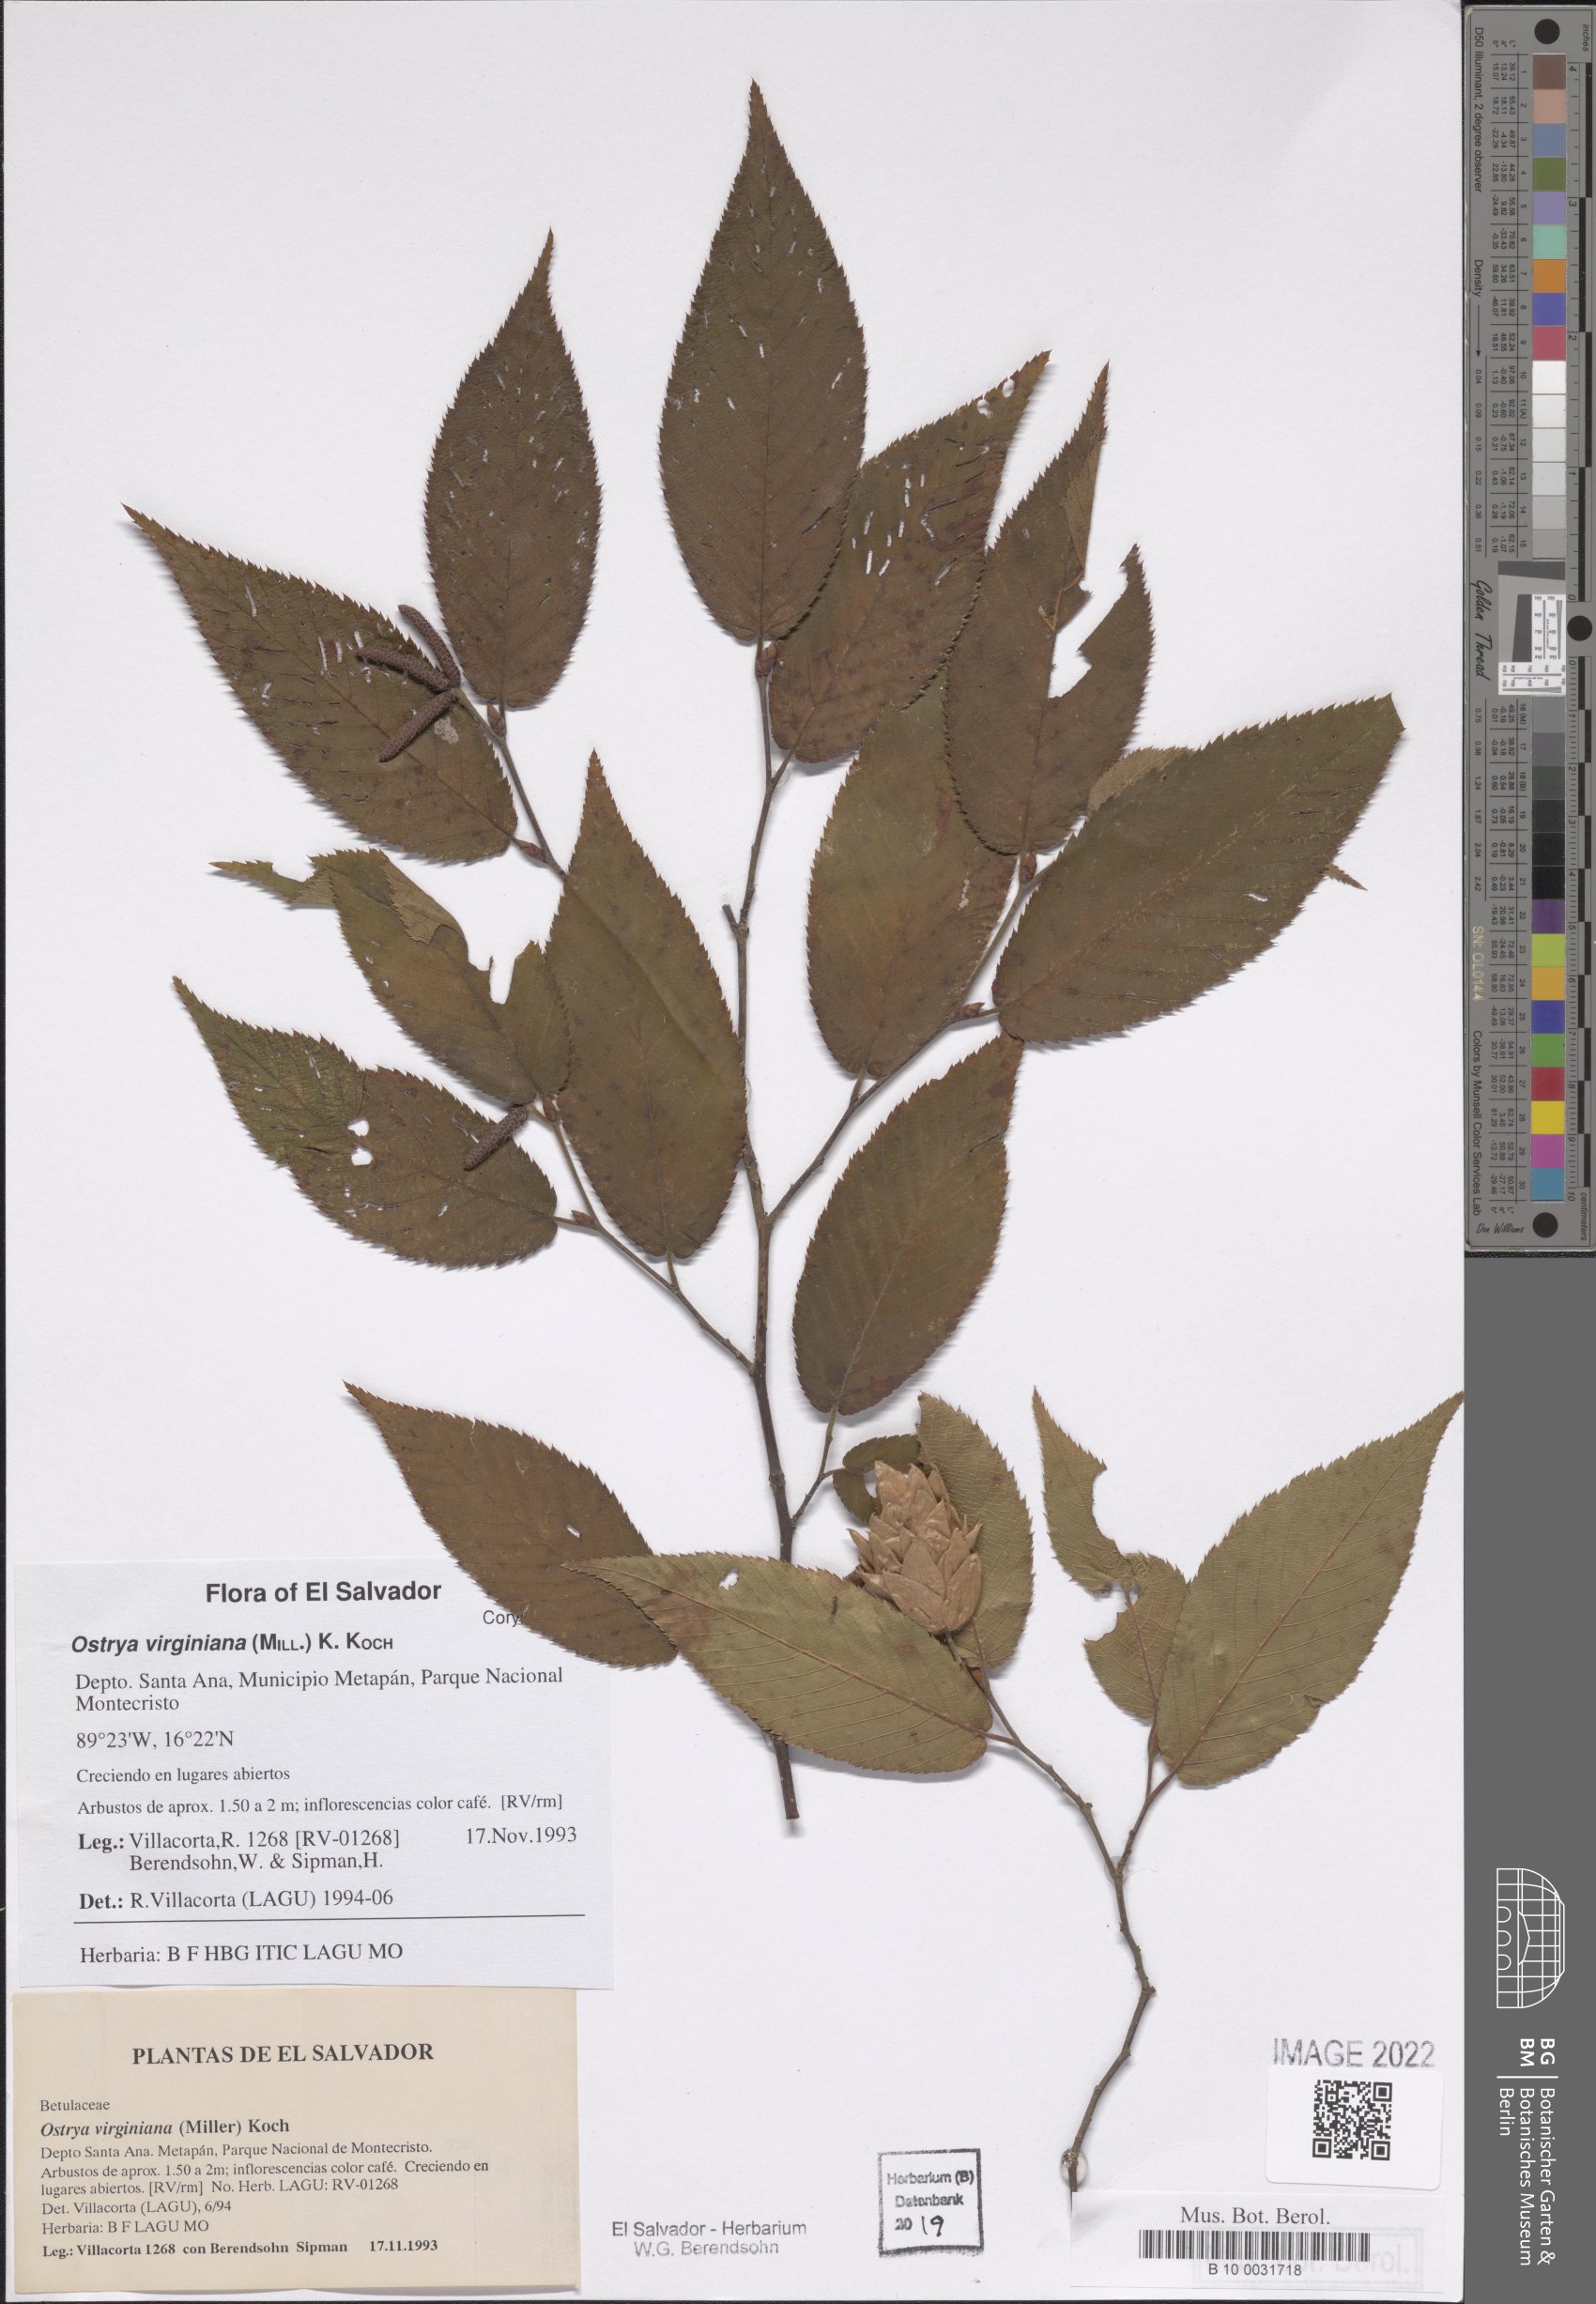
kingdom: Plantae
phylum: Tracheophyta
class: Magnoliopsida
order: Fagales
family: Betulaceae
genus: Ostrya
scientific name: Ostrya virginiana
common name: Ironwood
